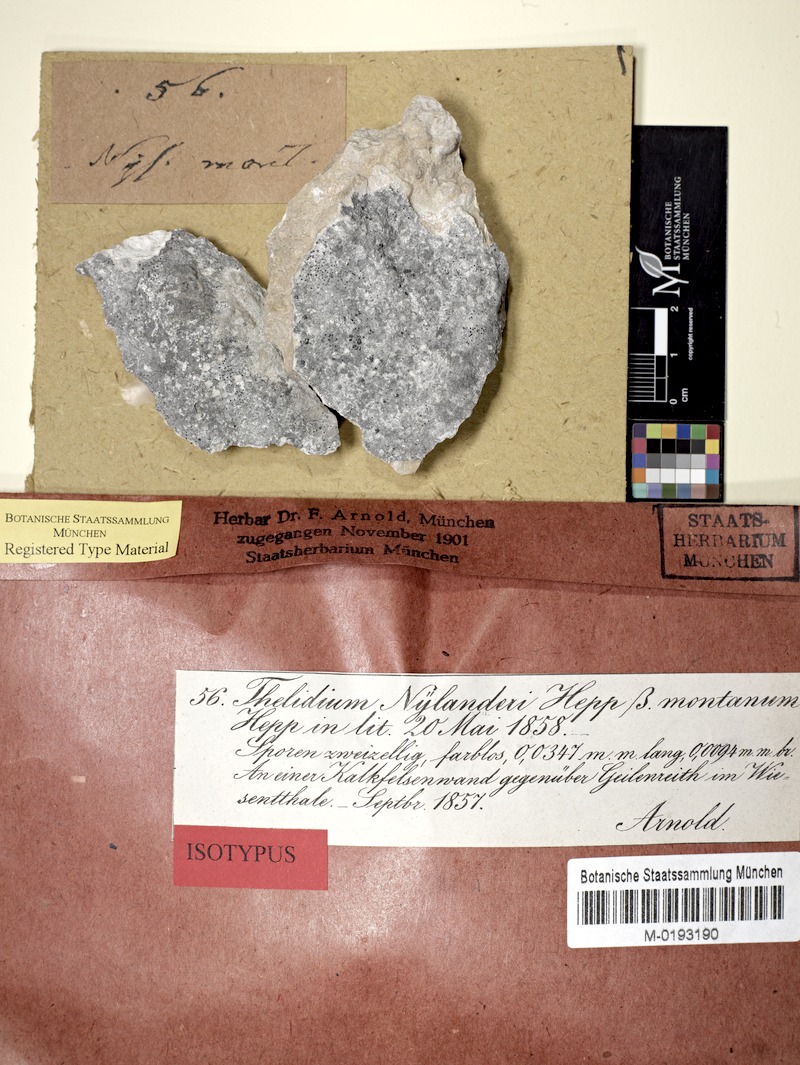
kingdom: Fungi
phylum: Ascomycota
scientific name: Ascomycota
